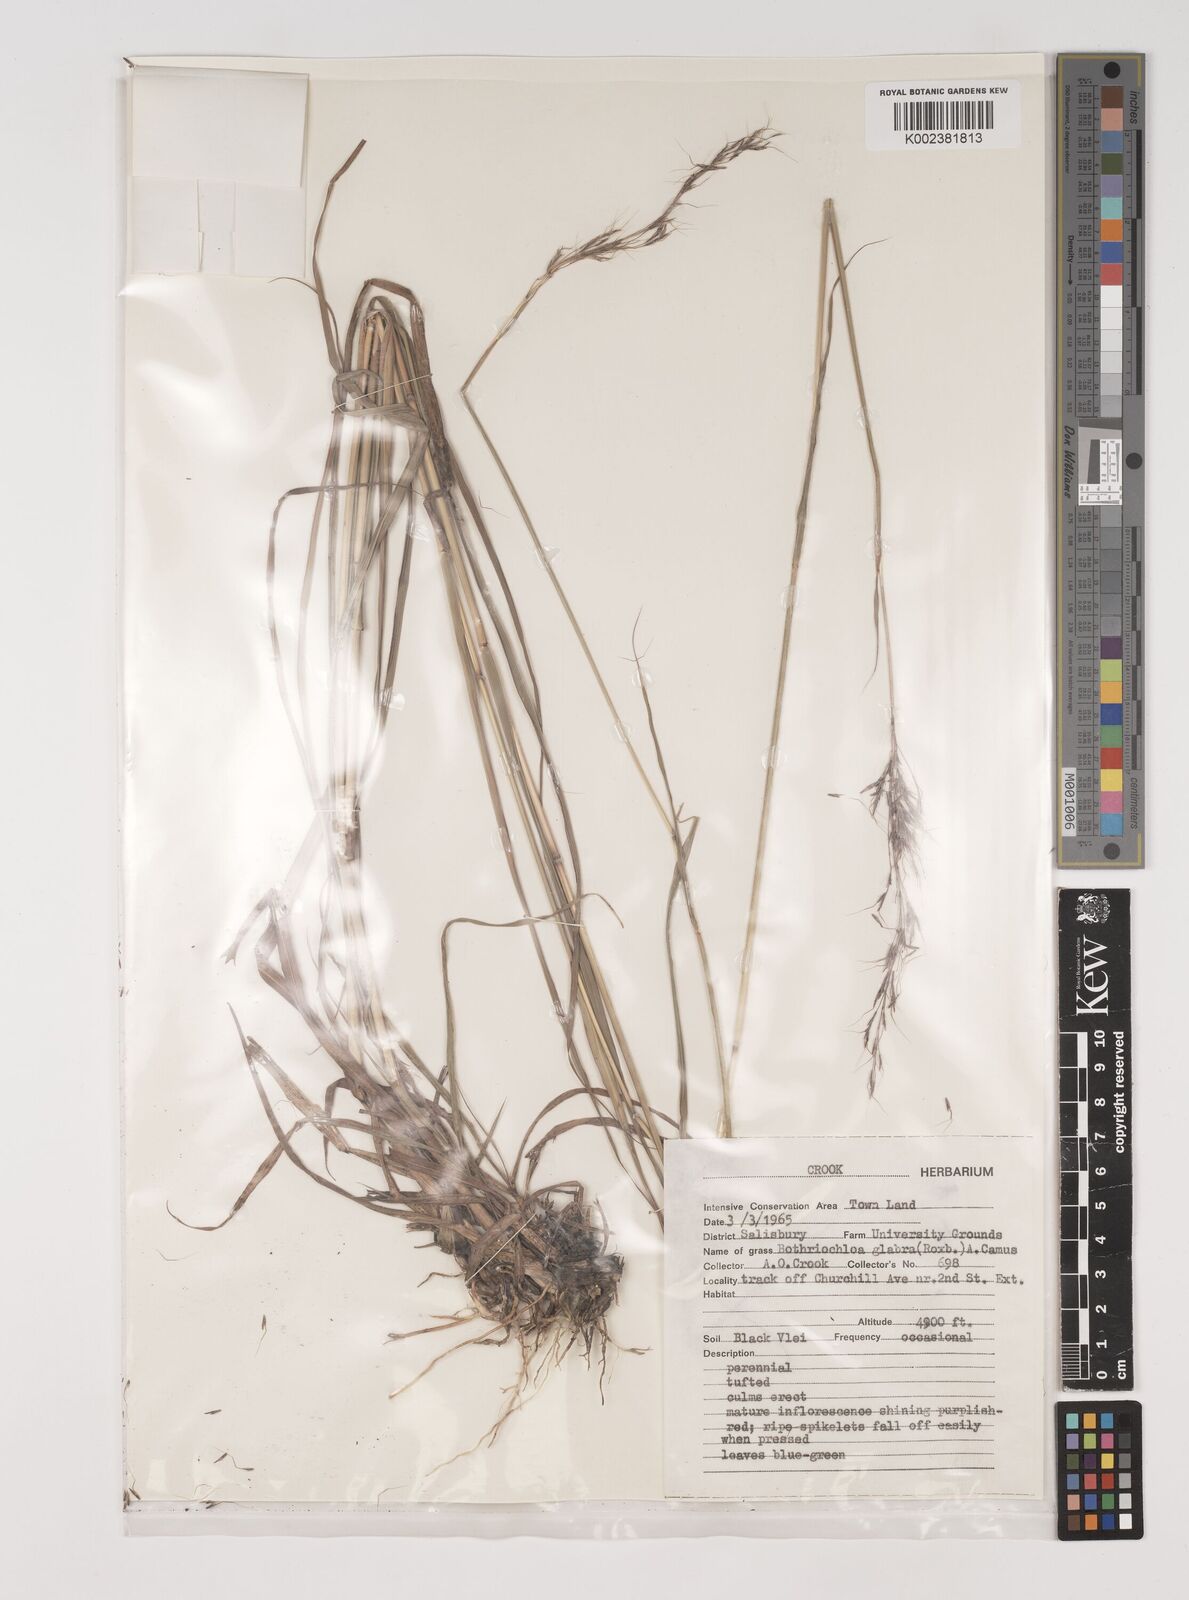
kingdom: Plantae
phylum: Tracheophyta
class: Liliopsida
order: Poales
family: Poaceae
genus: Bothriochloa
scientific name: Bothriochloa bladhii
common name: Caucasian bluestem
